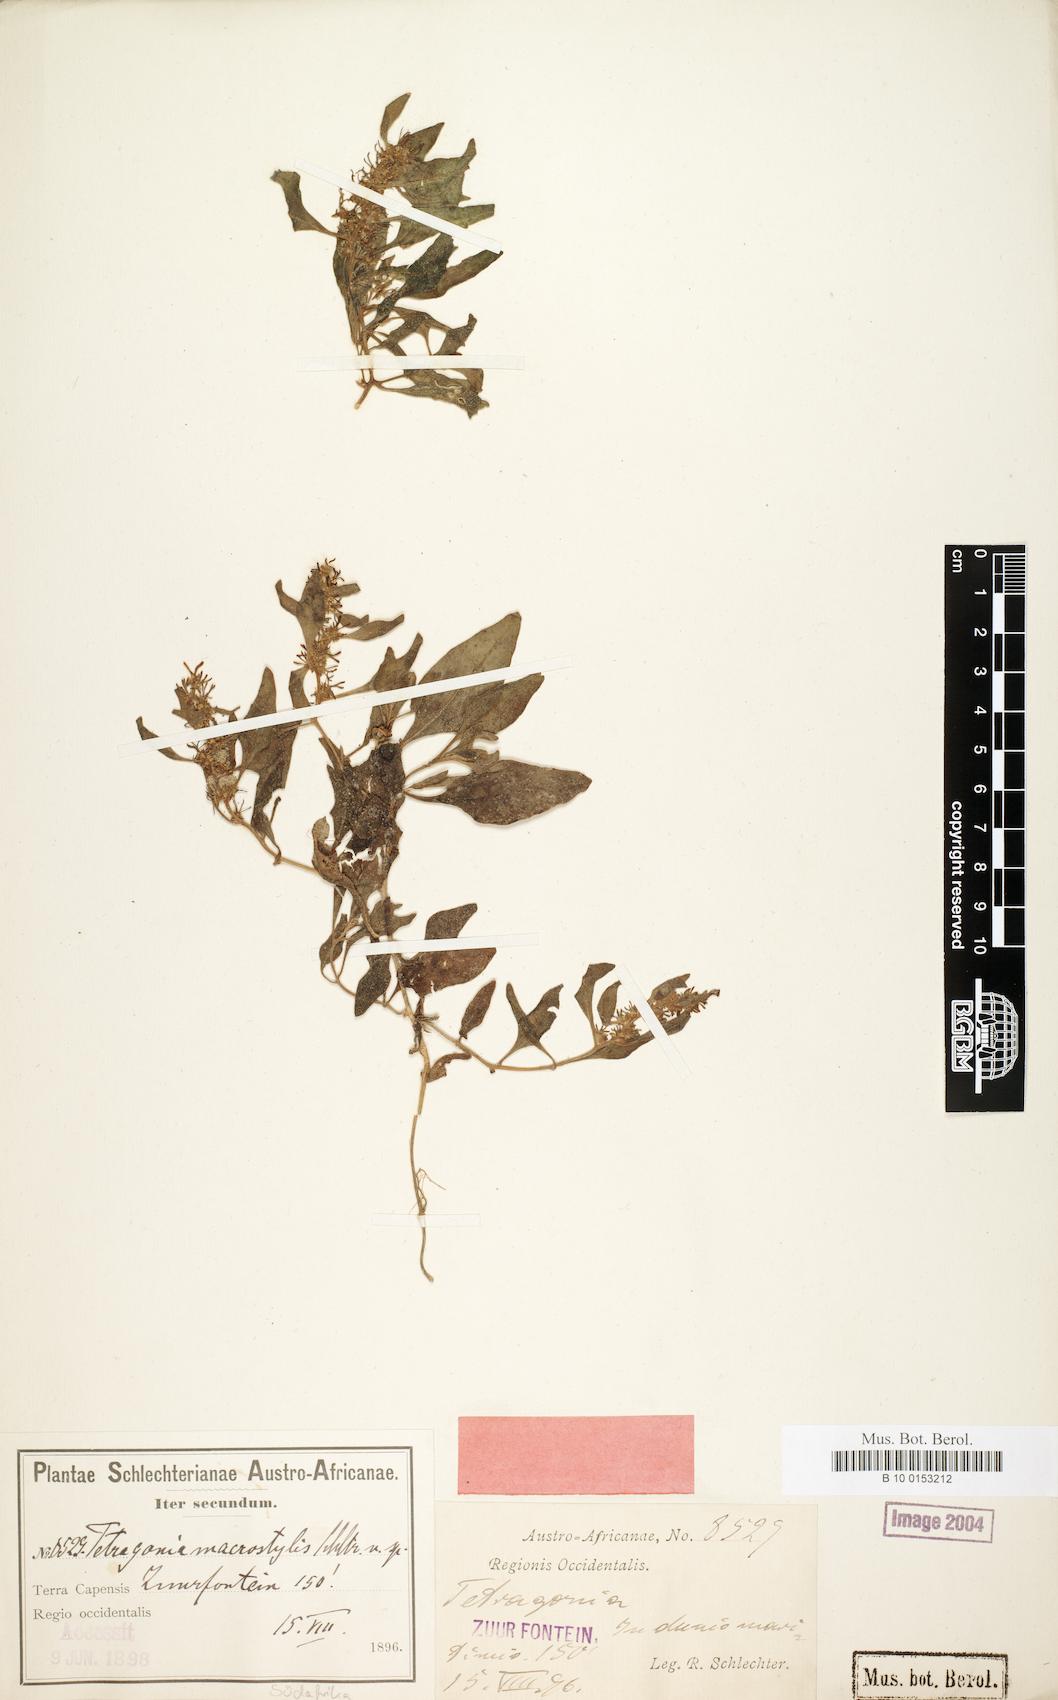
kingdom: Plantae
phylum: Tracheophyta
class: Magnoliopsida
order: Caryophyllales
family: Aizoaceae
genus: Tetragonia
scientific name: Tetragonia chenopodioides
